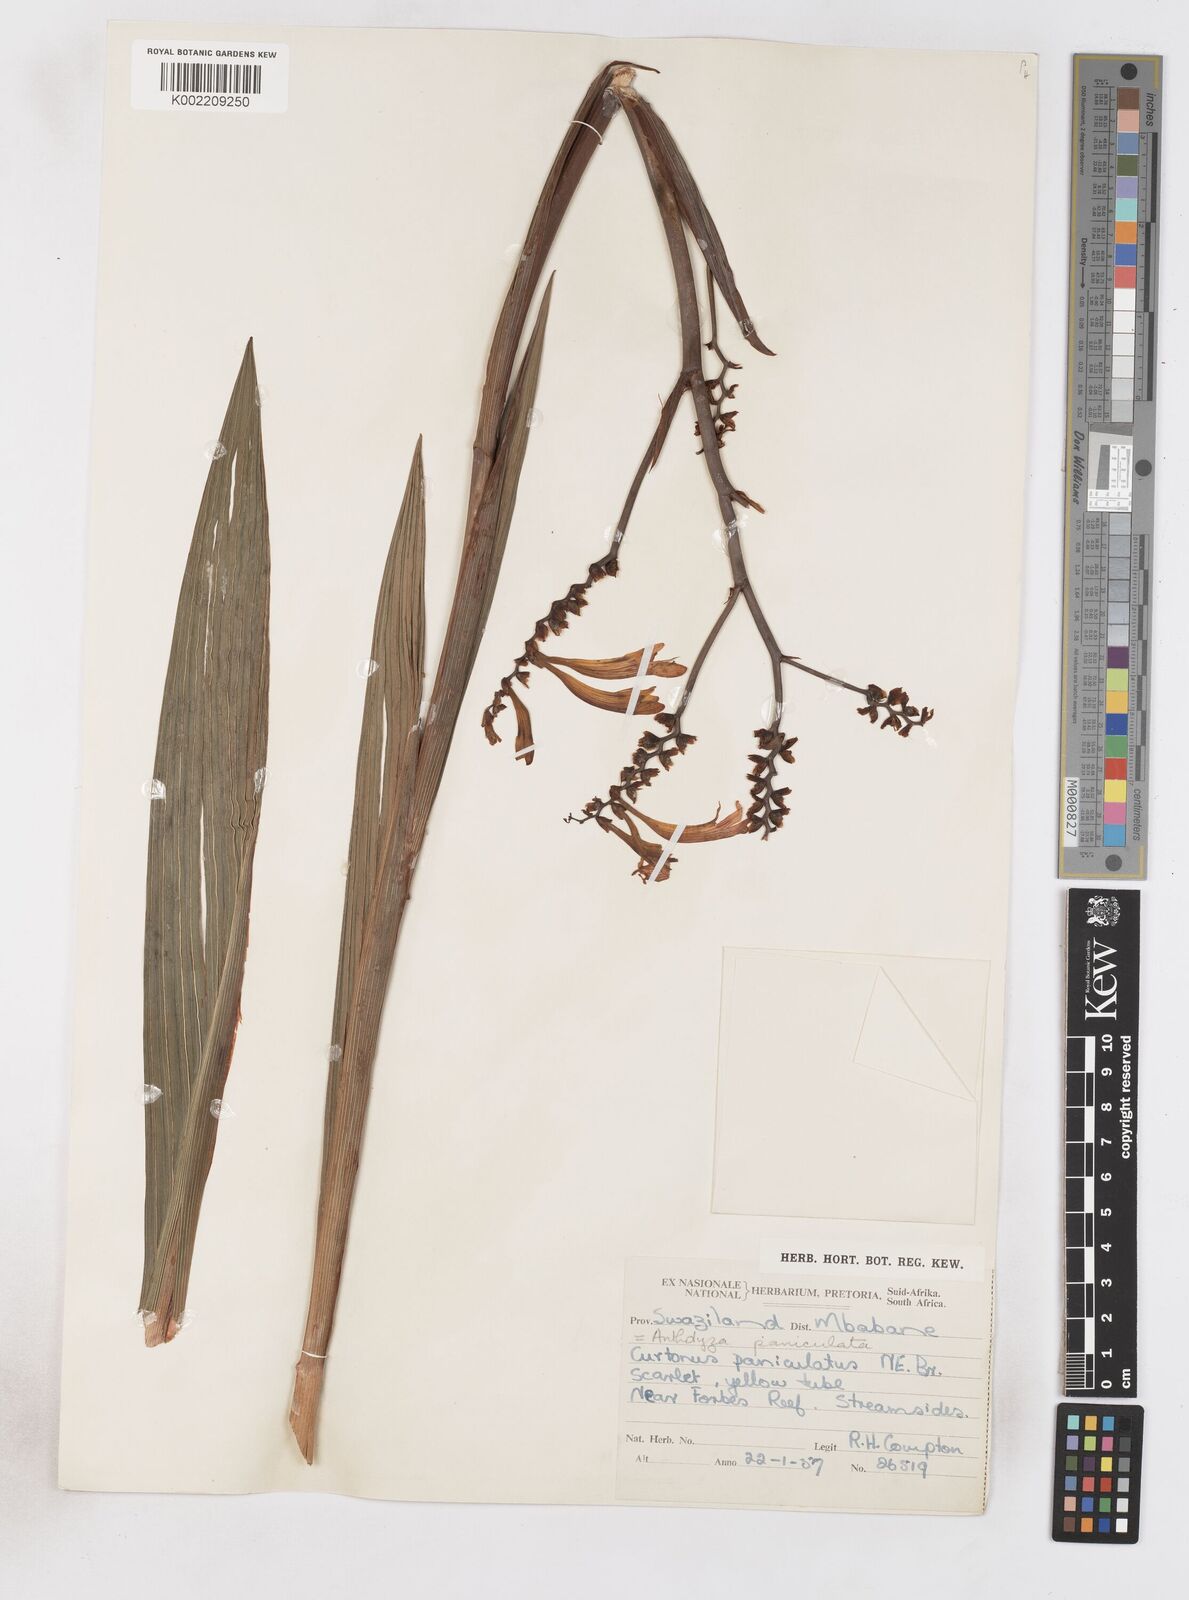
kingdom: Plantae
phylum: Tracheophyta
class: Liliopsida
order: Asparagales
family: Iridaceae
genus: Crocosmia
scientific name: Crocosmia paniculata
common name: Aunt eliza
